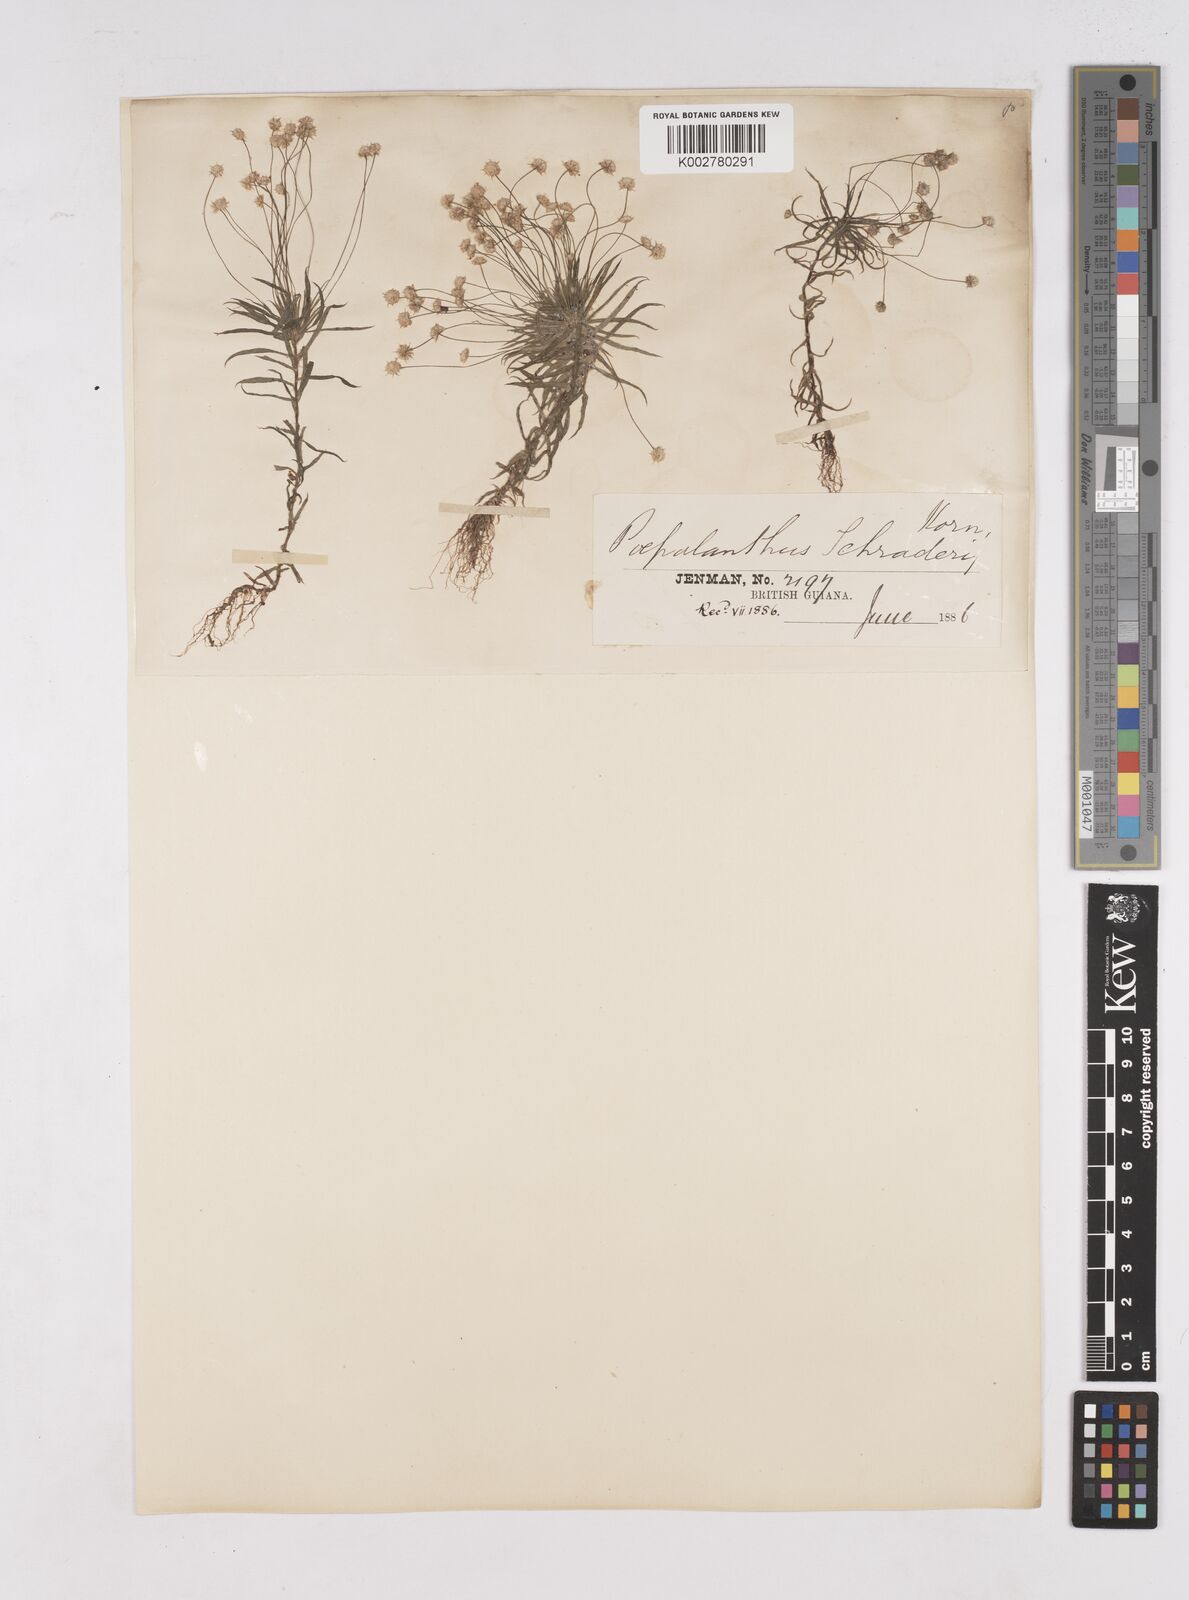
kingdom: Plantae
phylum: Tracheophyta
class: Liliopsida
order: Poales
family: Eriocaulaceae
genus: Paepalanthus
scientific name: Paepalanthus bifidus
